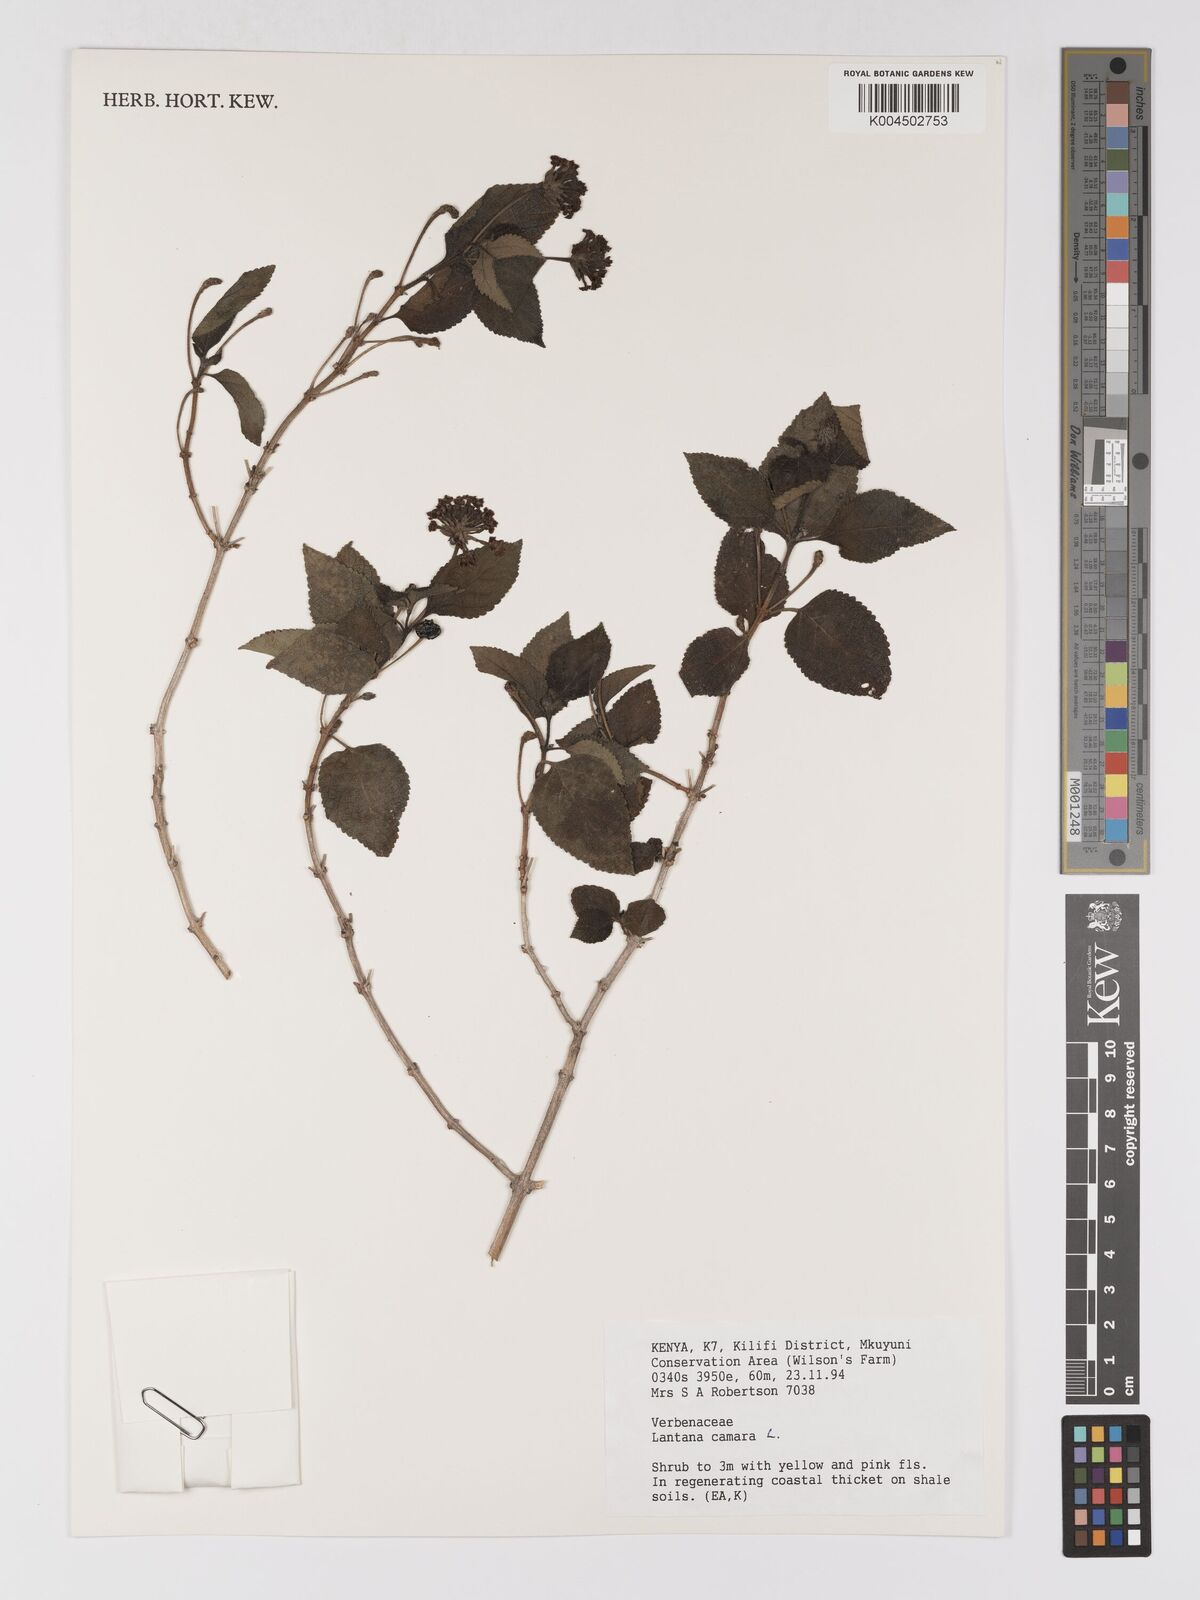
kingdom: Plantae
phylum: Tracheophyta
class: Magnoliopsida
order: Lamiales
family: Verbenaceae
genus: Lantana
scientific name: Lantana camara
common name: Lantana
